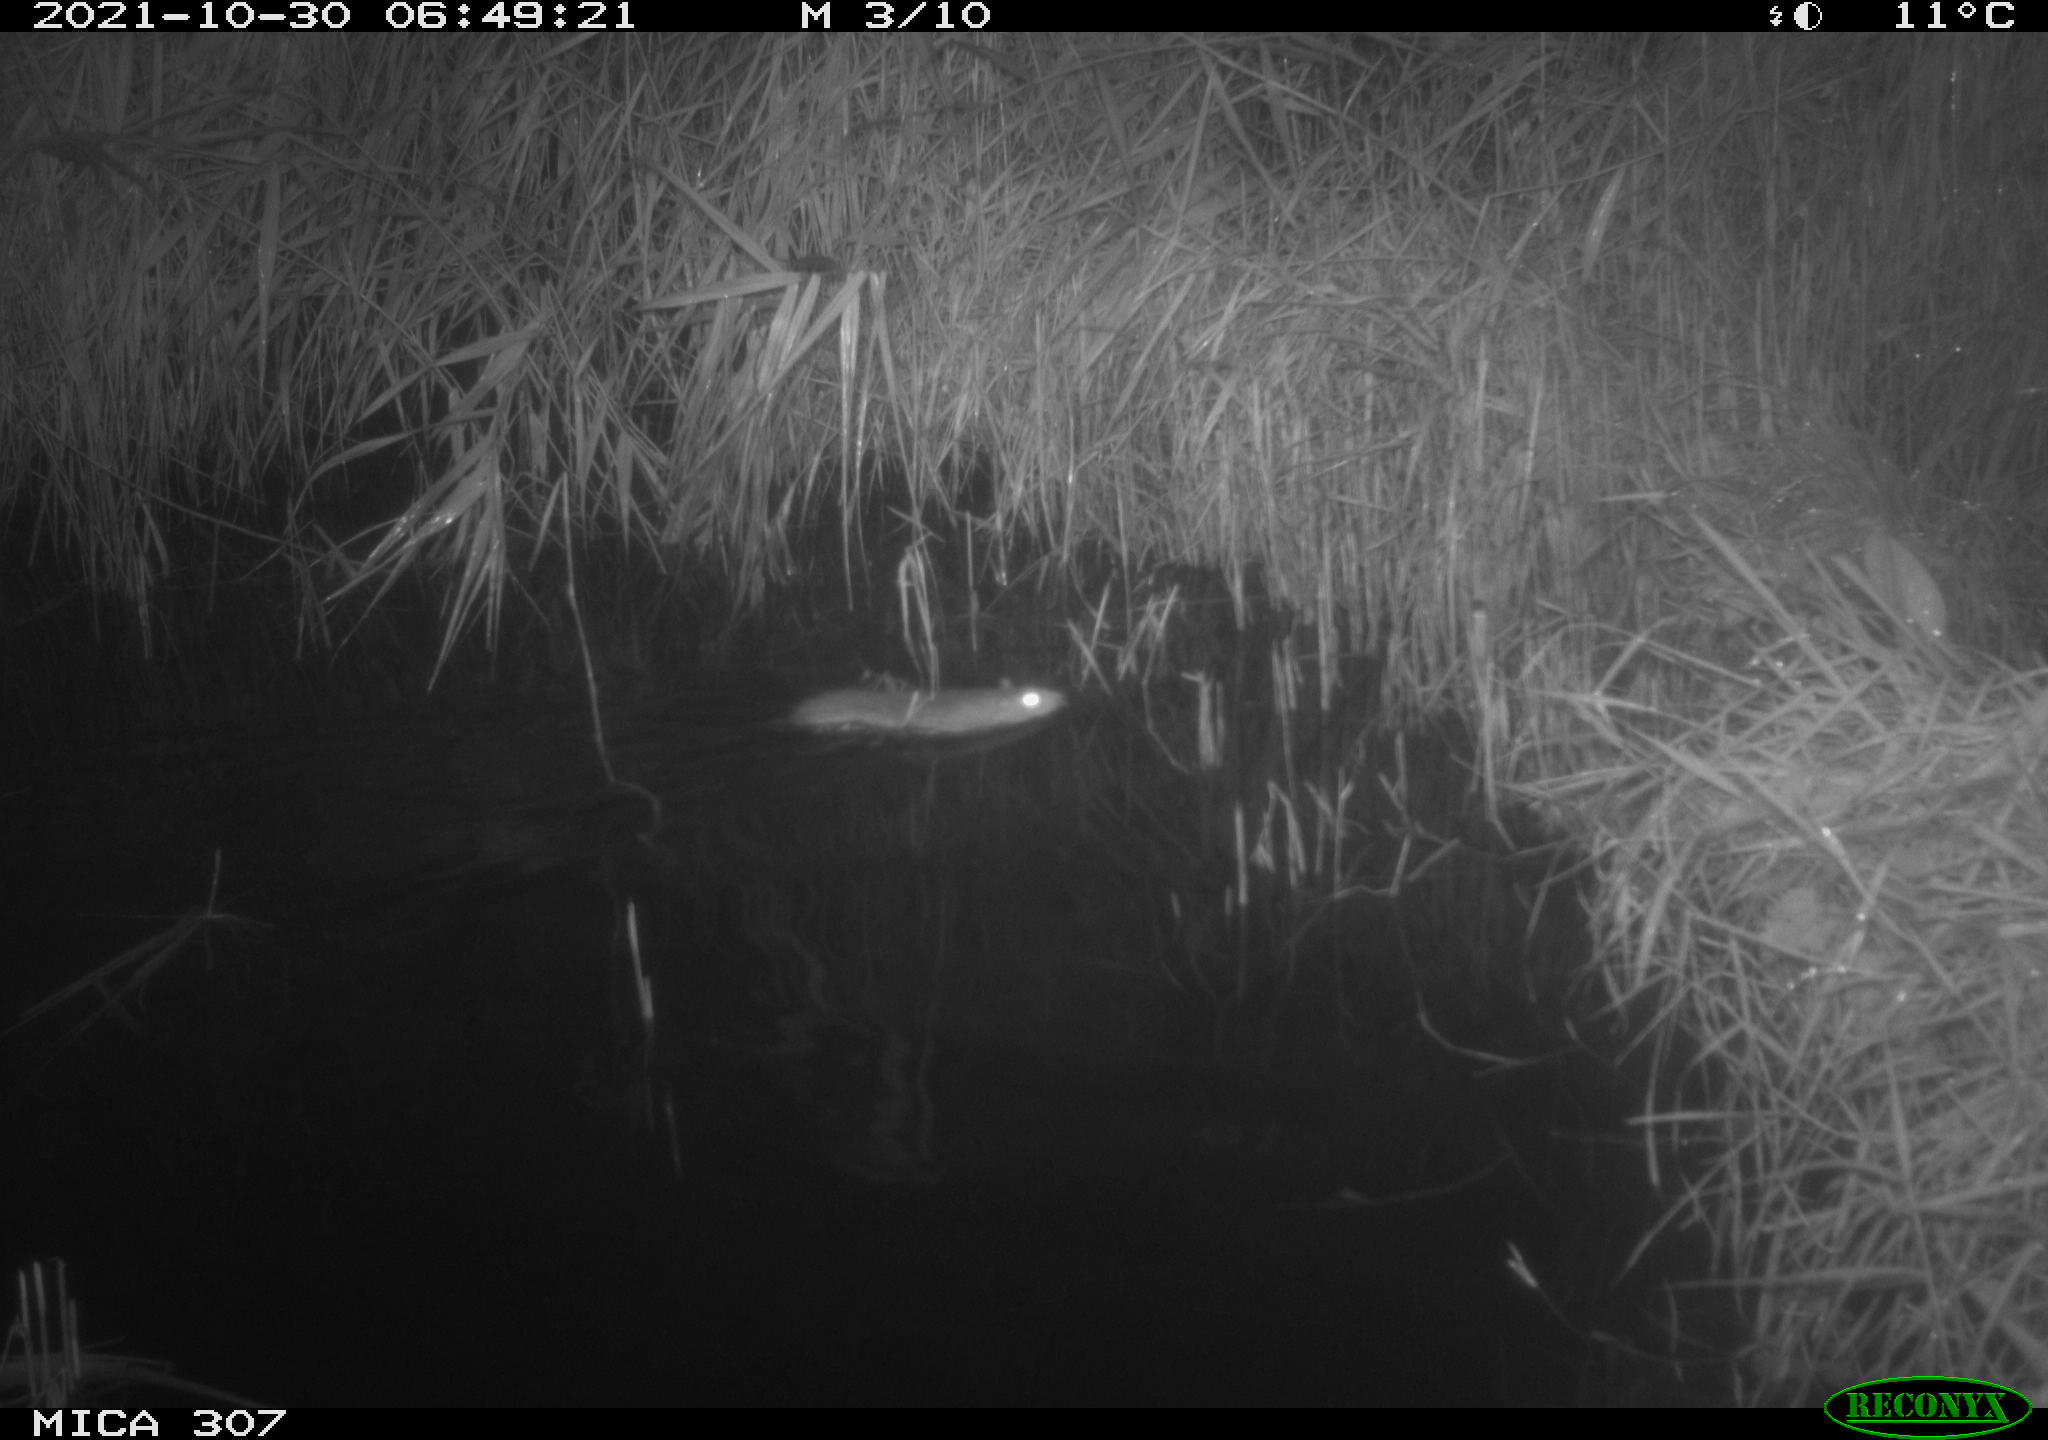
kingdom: Animalia
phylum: Chordata
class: Mammalia
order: Rodentia
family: Muridae
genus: Rattus
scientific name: Rattus norvegicus
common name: Brown rat
